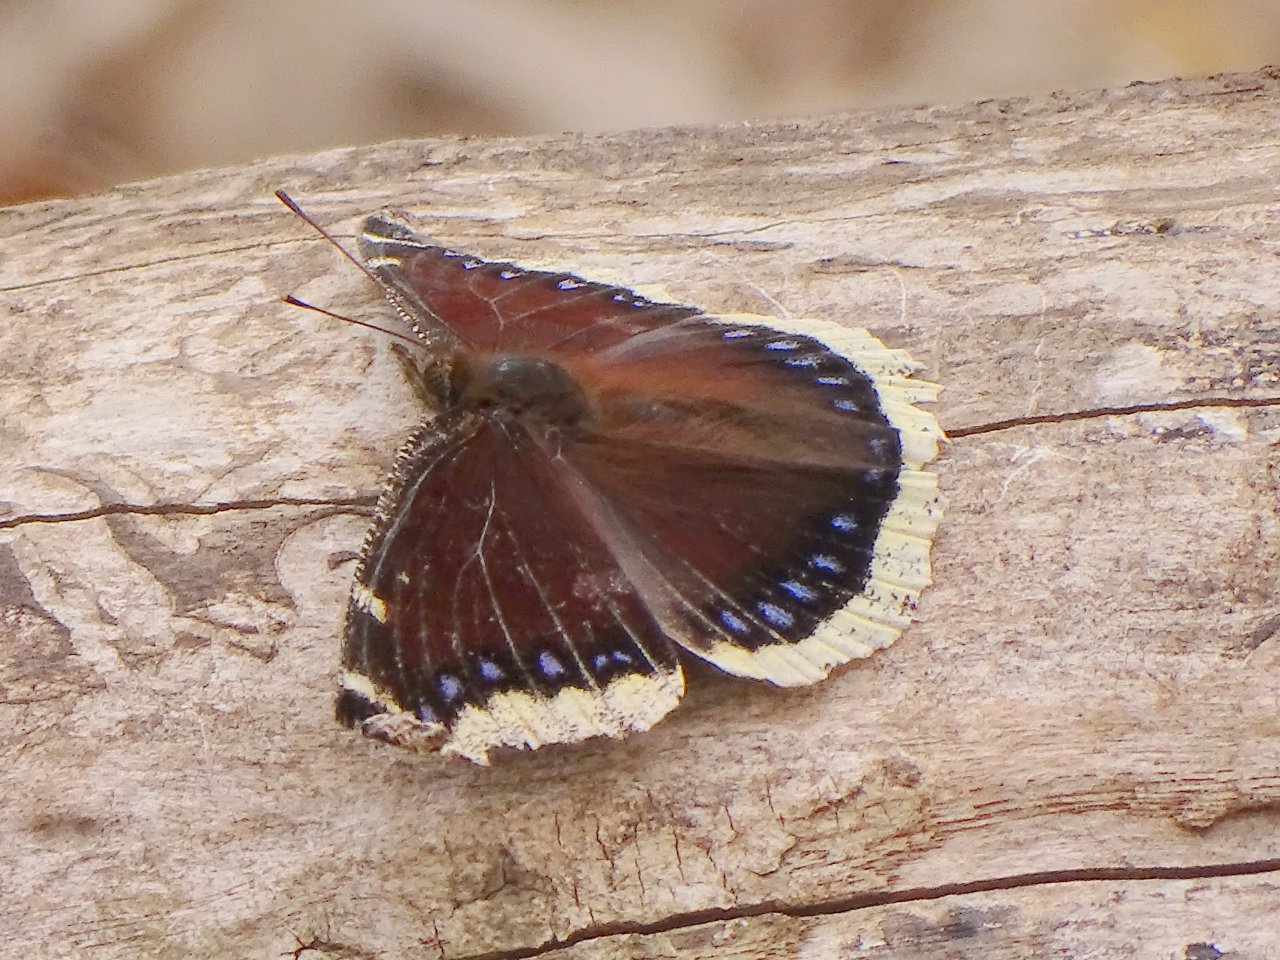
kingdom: Animalia
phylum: Arthropoda
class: Insecta
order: Lepidoptera
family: Nymphalidae
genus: Nymphalis
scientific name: Nymphalis antiopa
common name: Mourning Cloak
